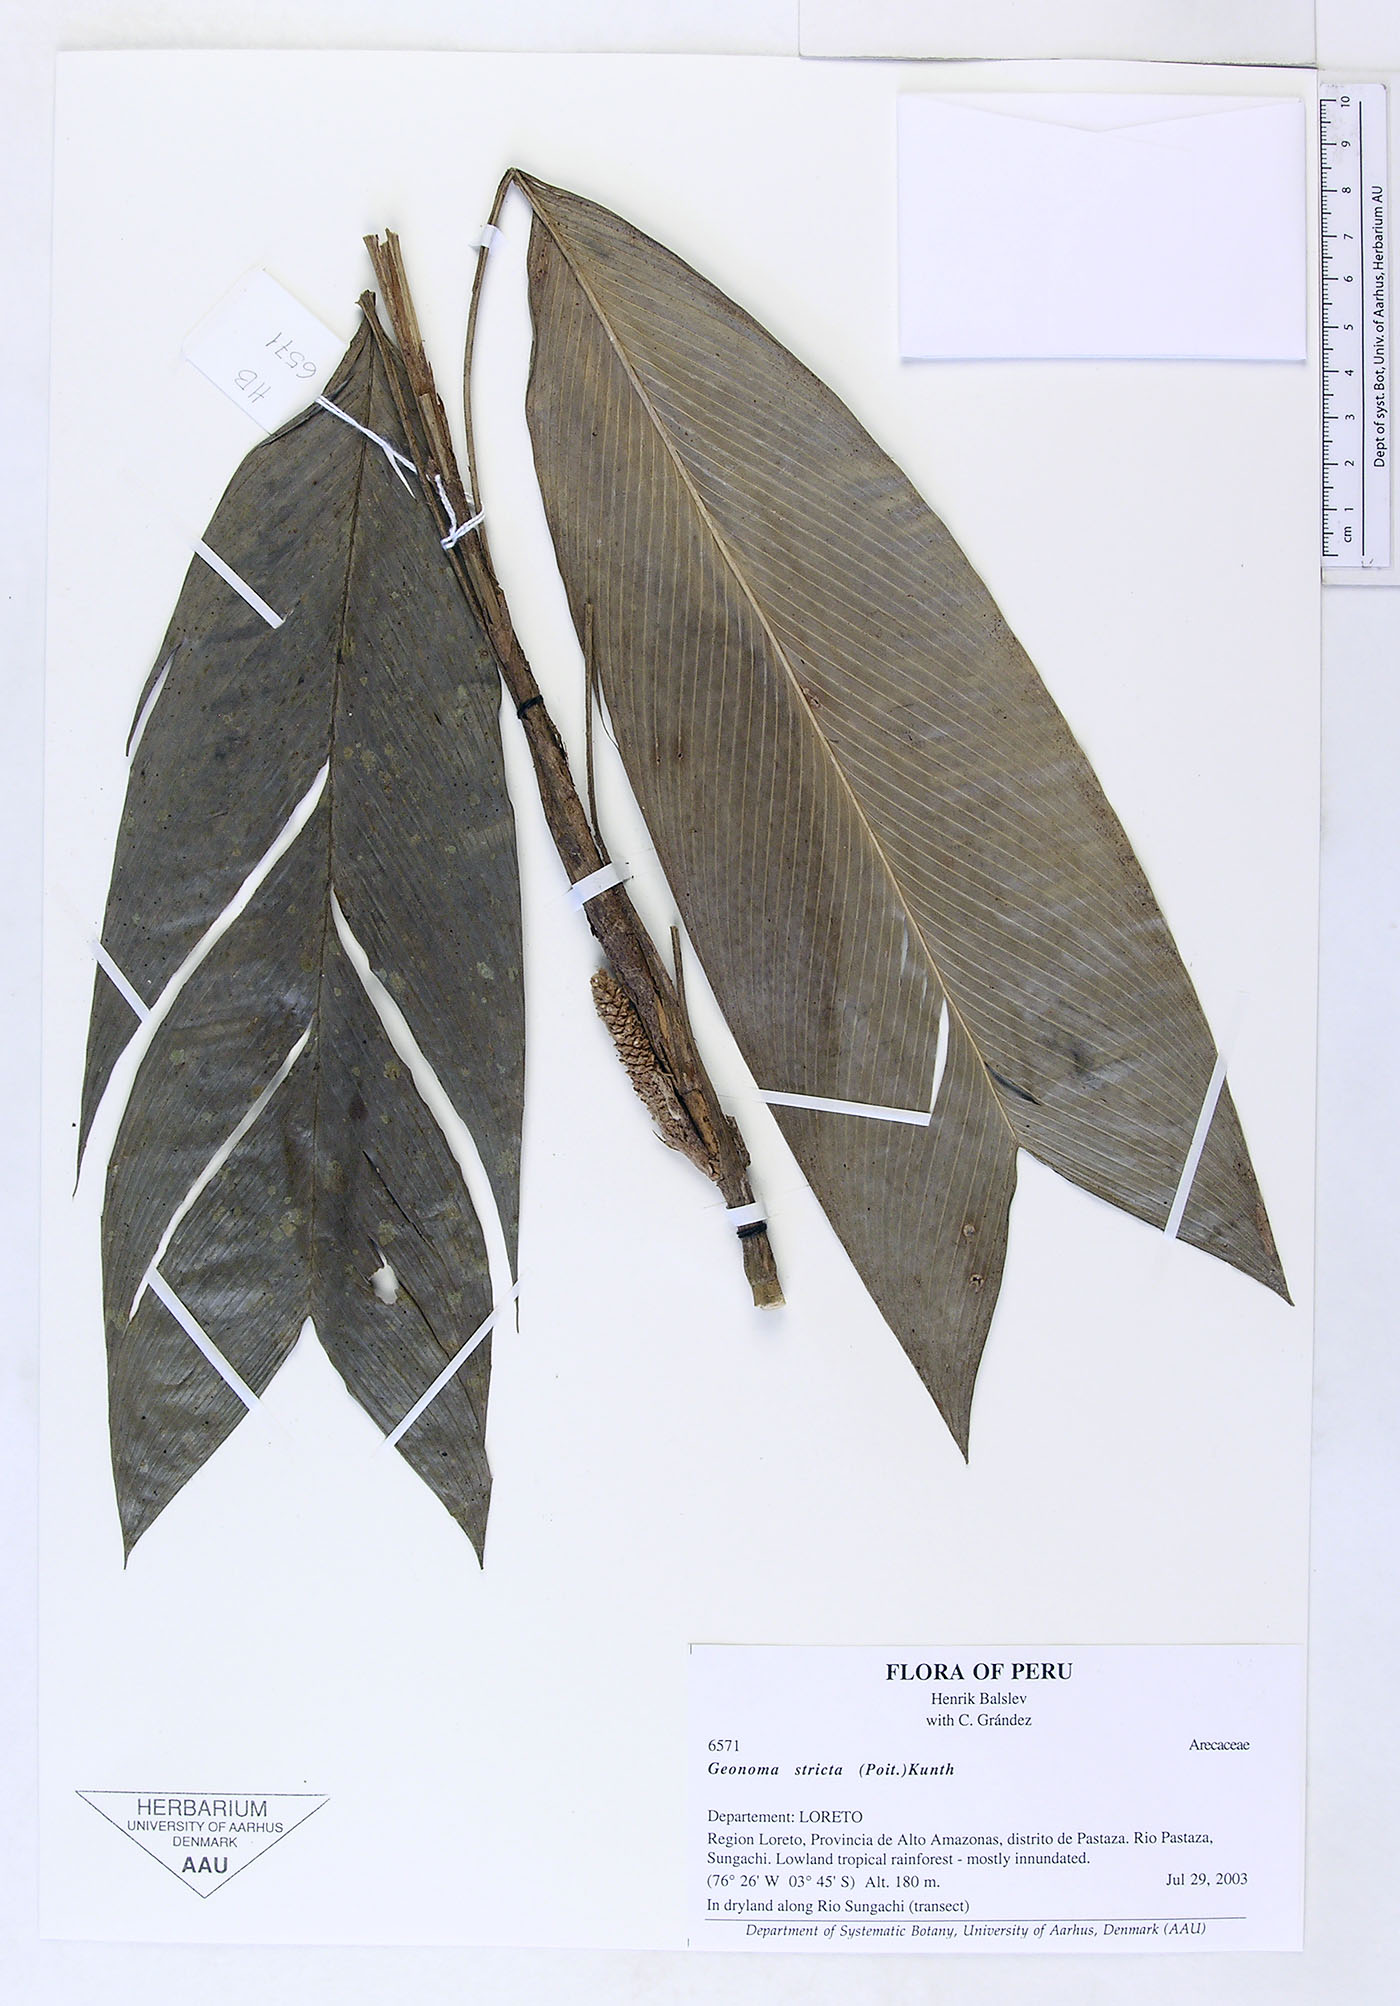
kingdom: Plantae
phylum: Tracheophyta
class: Liliopsida
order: Arecales
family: Arecaceae
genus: Geonoma
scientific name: Geonoma stricta
